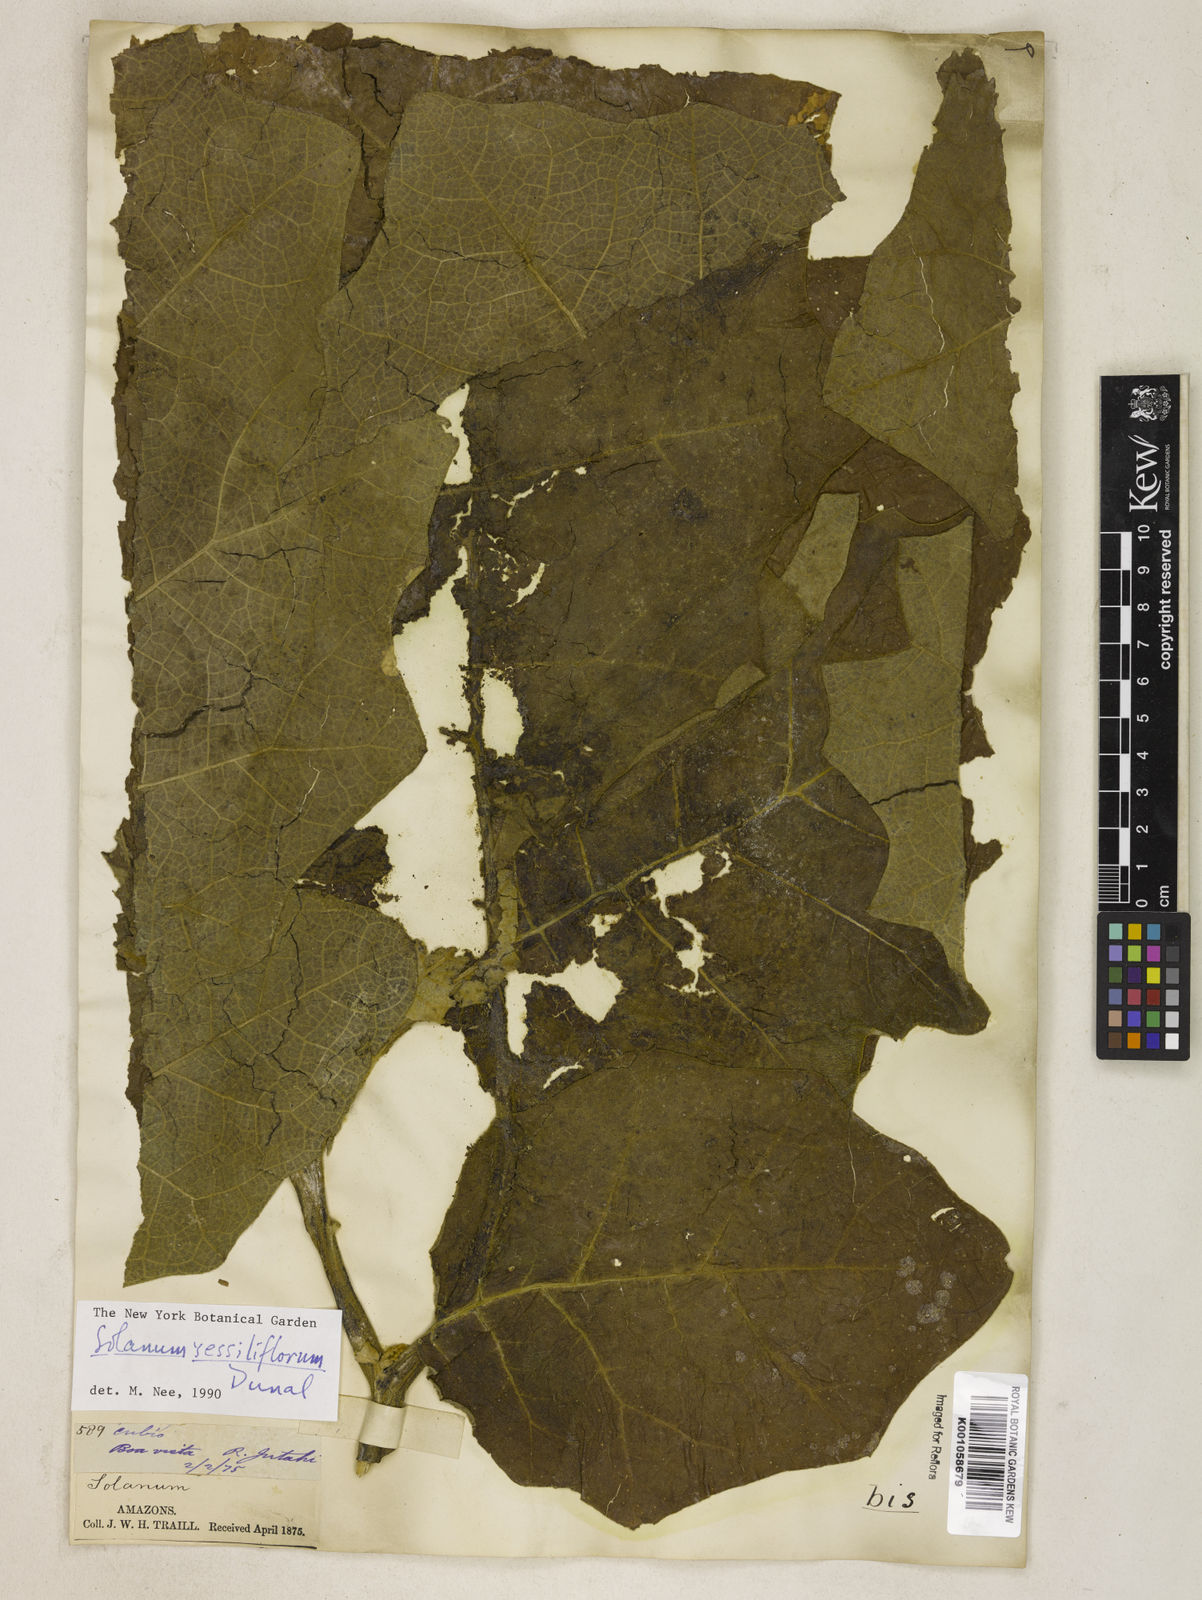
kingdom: Plantae
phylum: Tracheophyta
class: Magnoliopsida
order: Solanales
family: Solanaceae
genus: Solanum
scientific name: Solanum sessiliflorum
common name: Orinoco-apple
